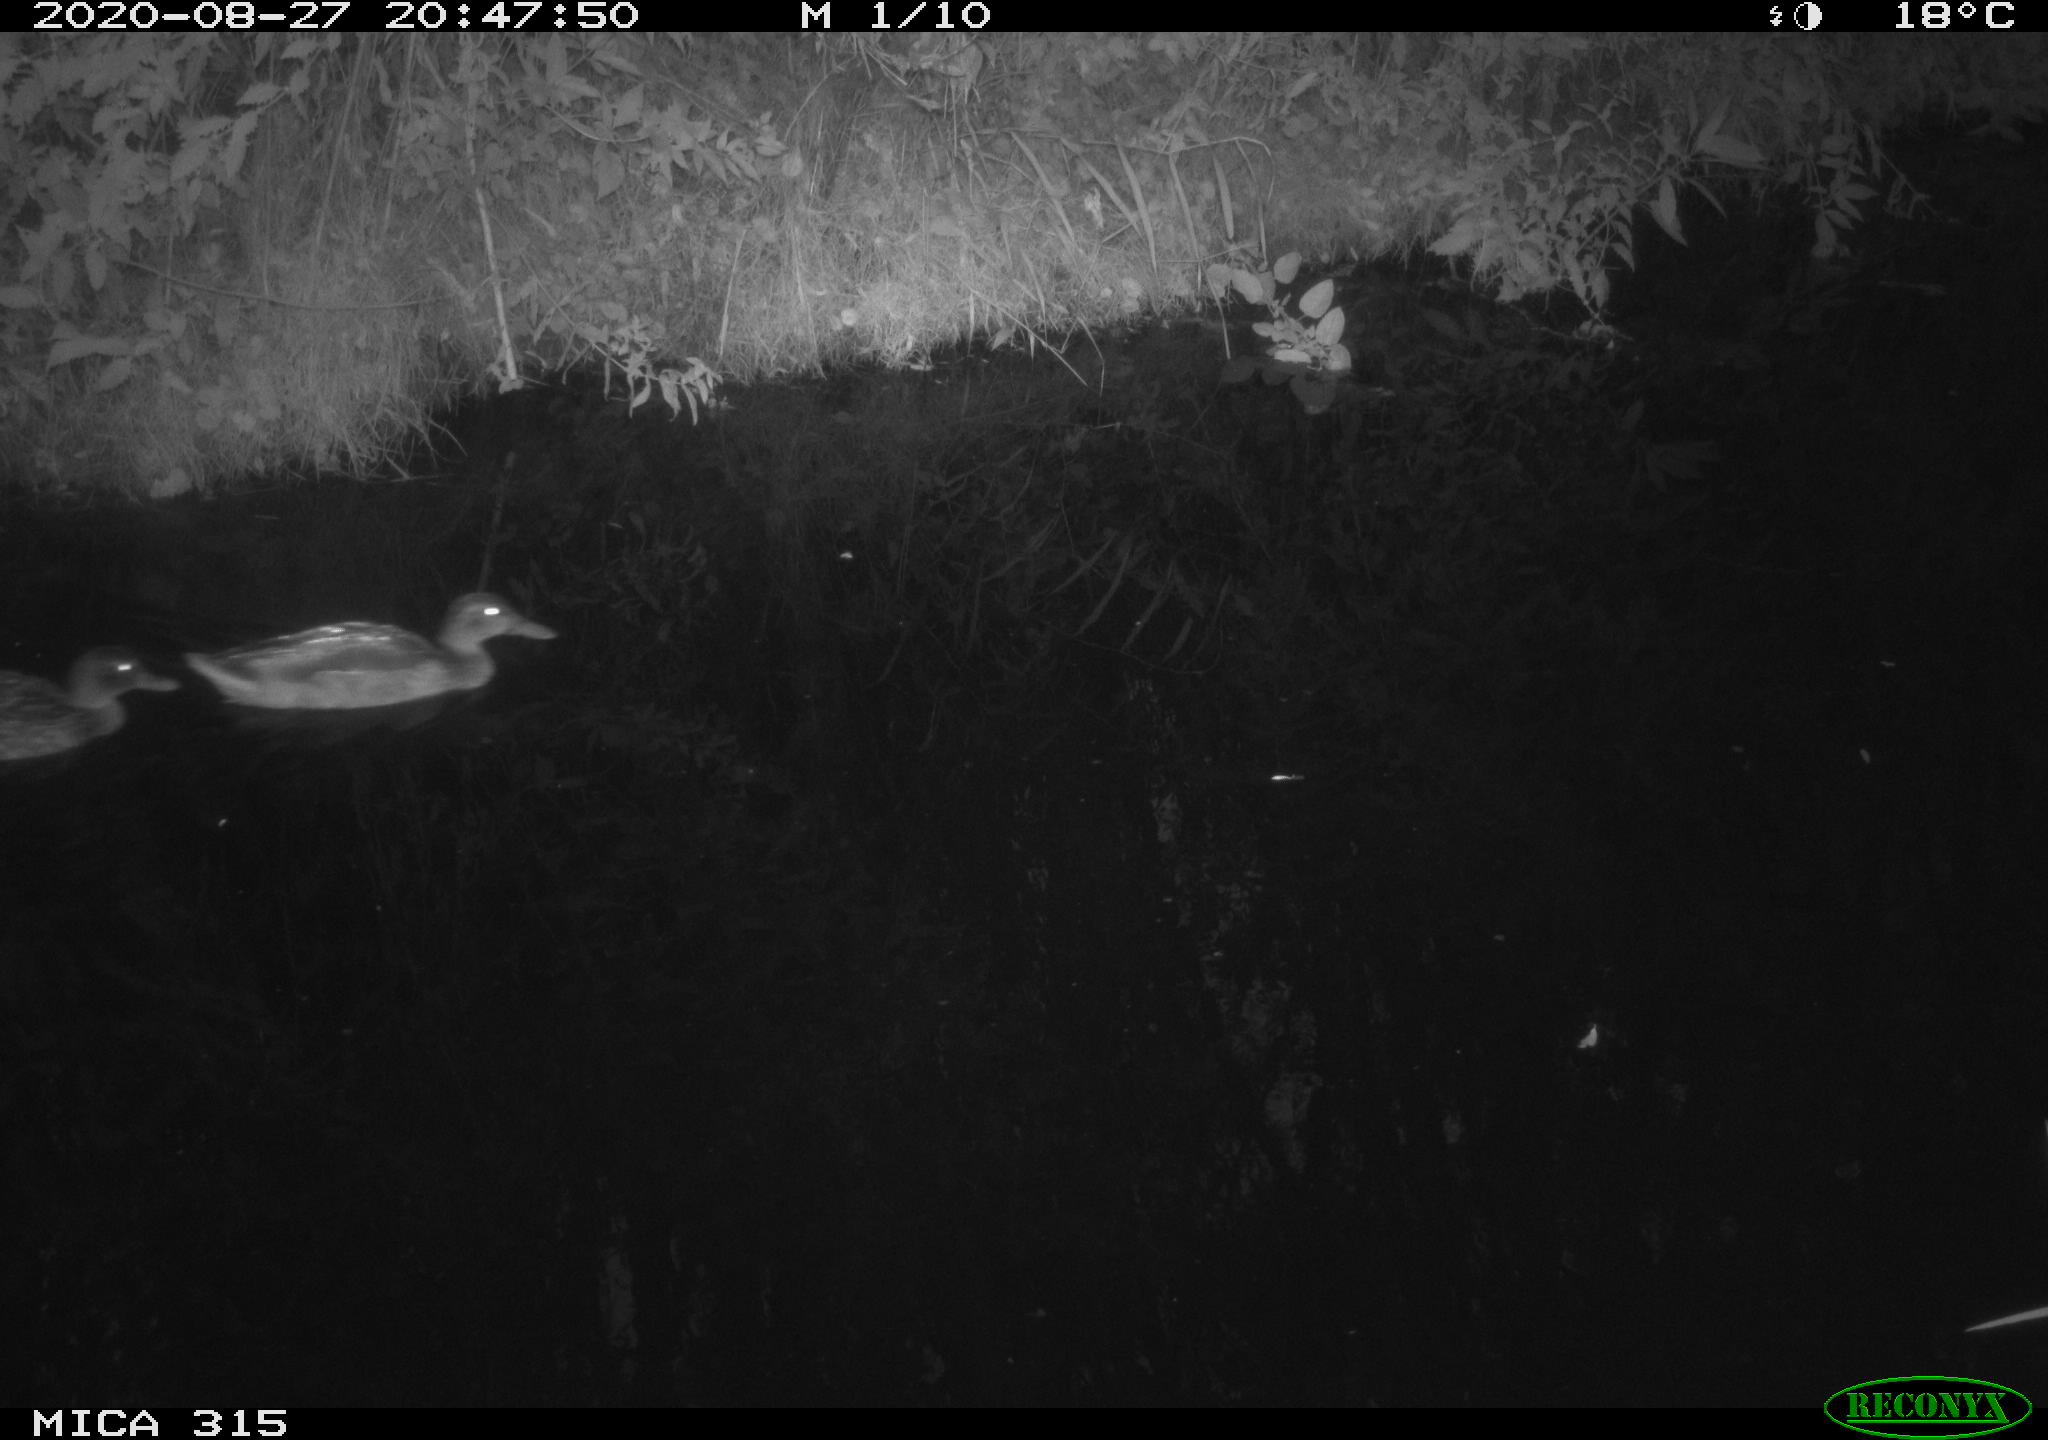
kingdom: Animalia
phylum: Chordata
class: Aves
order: Anseriformes
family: Anatidae
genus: Anas
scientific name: Anas platyrhynchos
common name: Mallard
